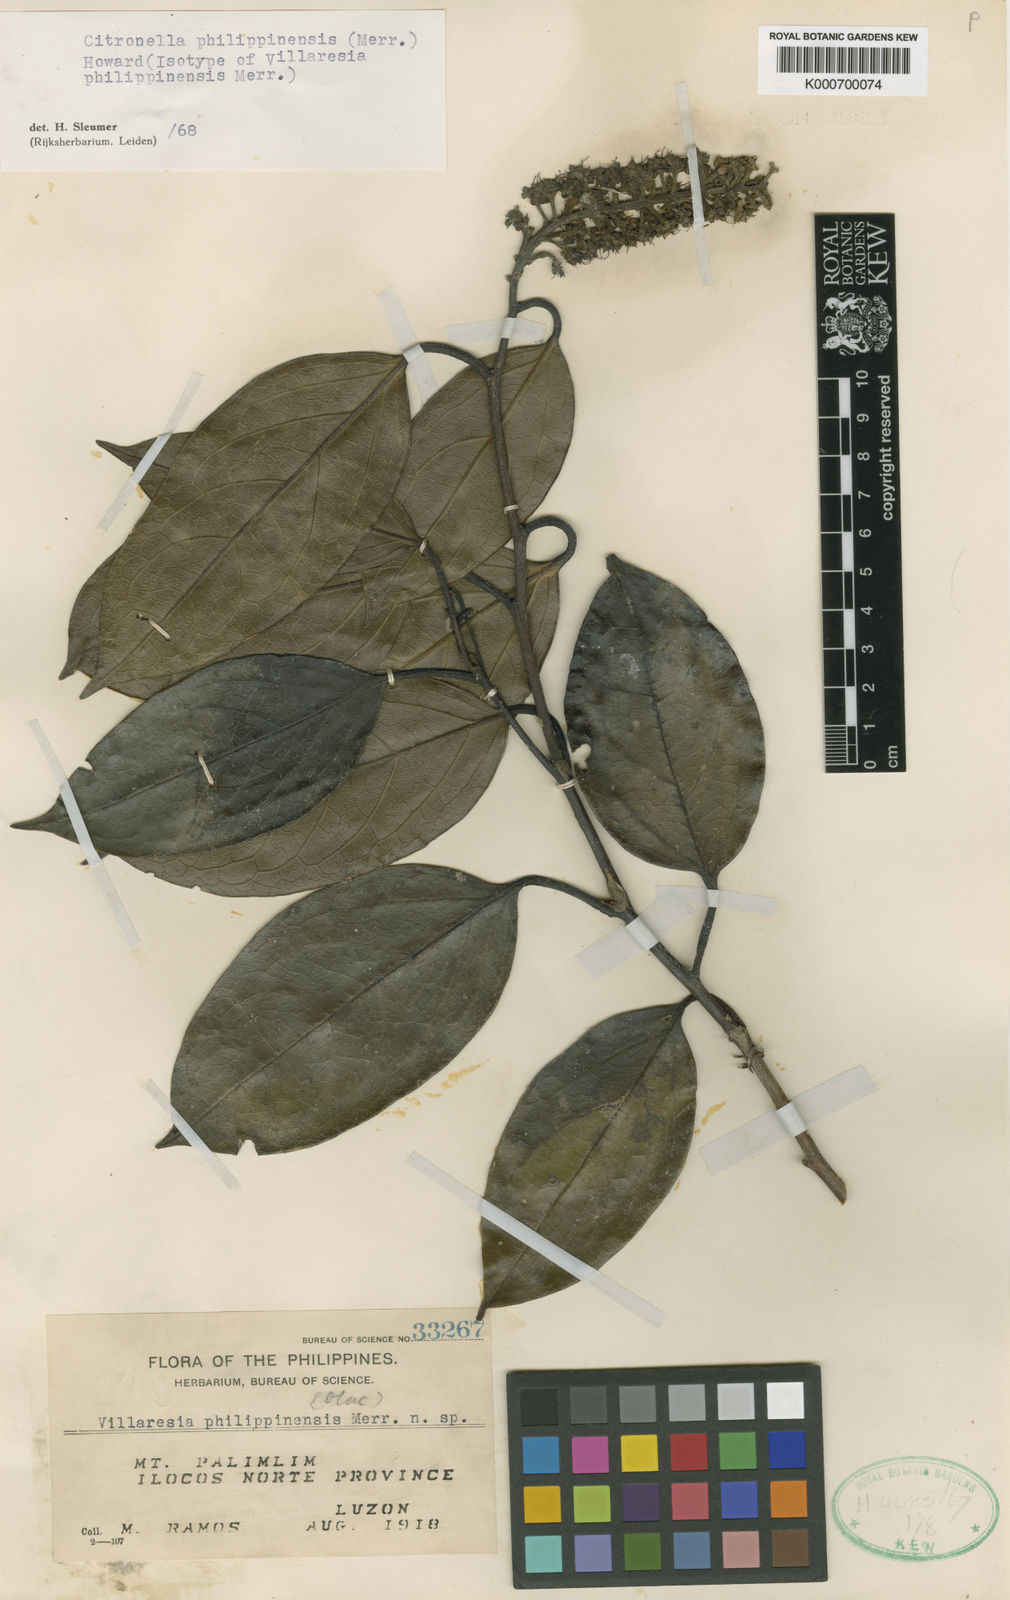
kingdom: Plantae
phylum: Tracheophyta
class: Magnoliopsida
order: Cardiopteridales
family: Cardiopteridaceae
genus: Citronella
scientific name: Citronella philippinensis
